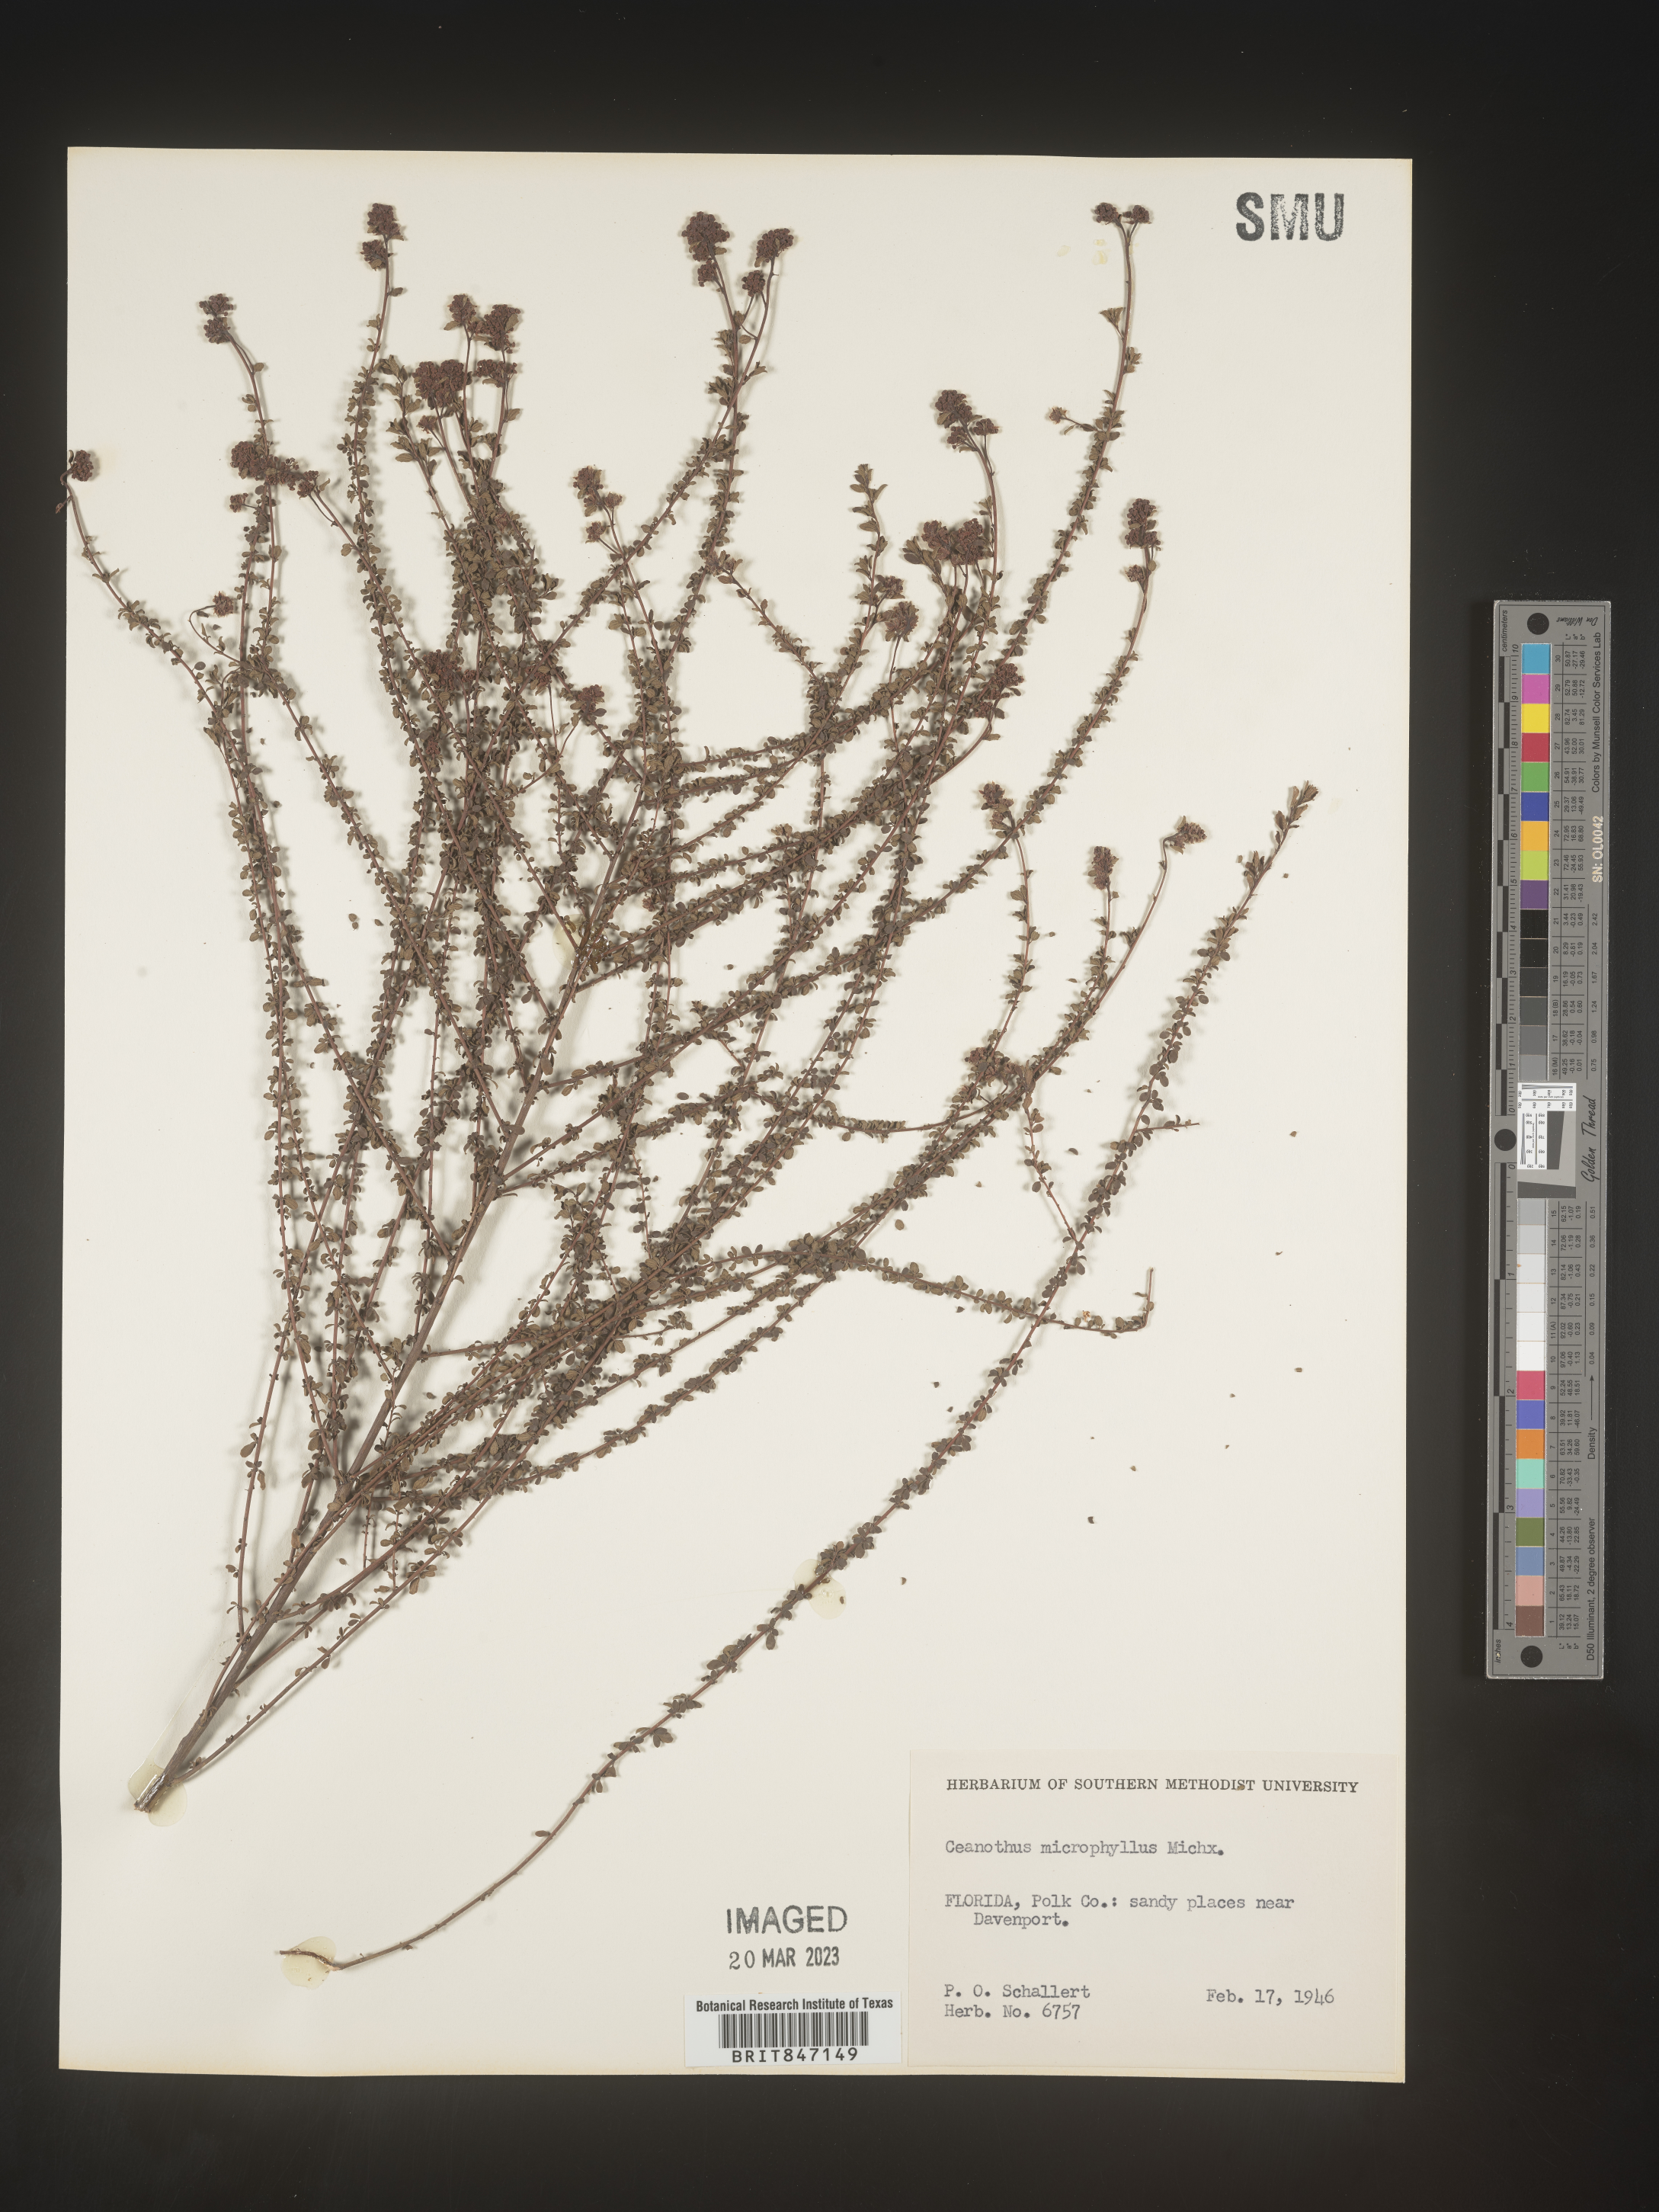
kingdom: Plantae
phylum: Tracheophyta
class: Magnoliopsida
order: Rosales
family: Rhamnaceae
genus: Ceanothus
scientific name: Ceanothus
